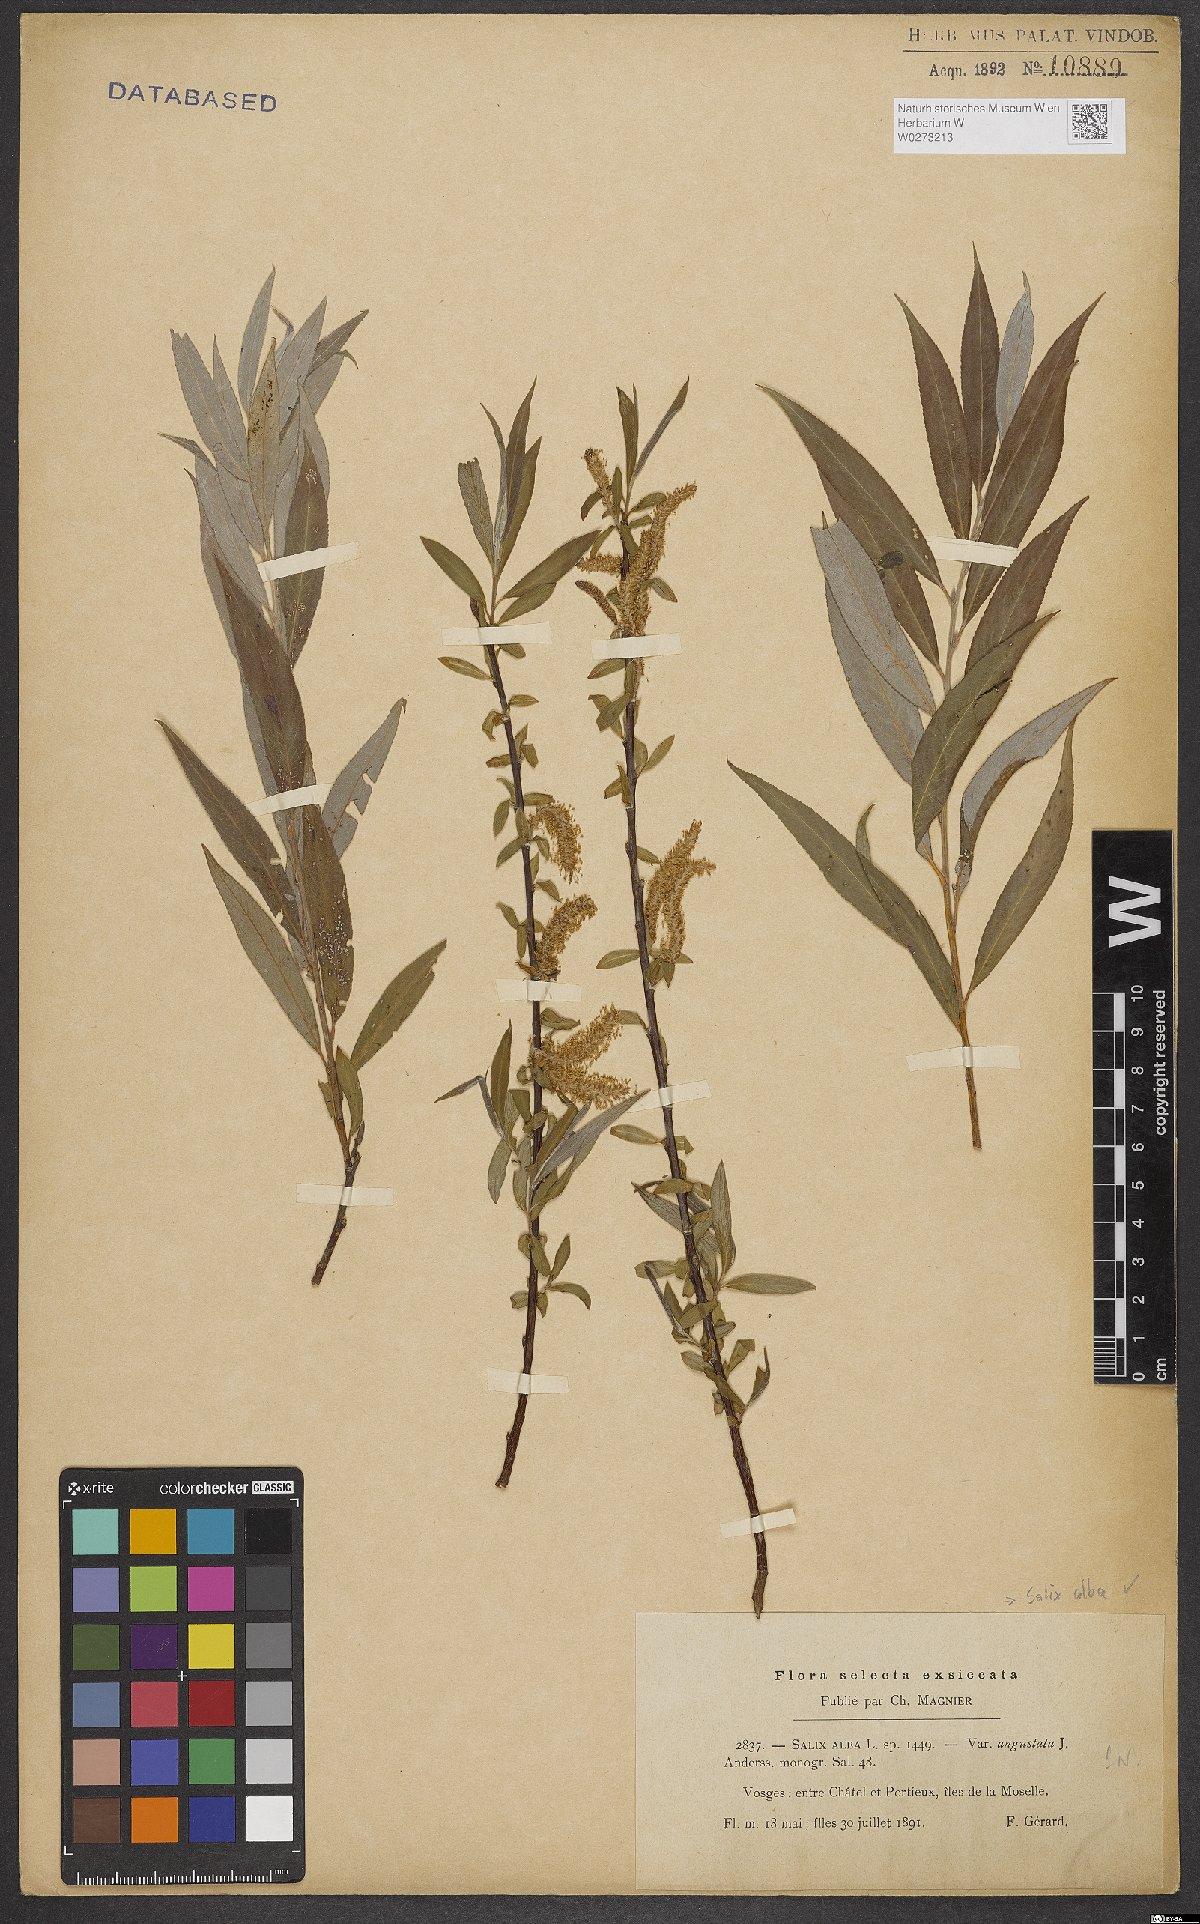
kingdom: Plantae
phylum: Tracheophyta
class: Magnoliopsida
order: Malpighiales
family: Salicaceae
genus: Salix
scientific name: Salix alba
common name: White willow
